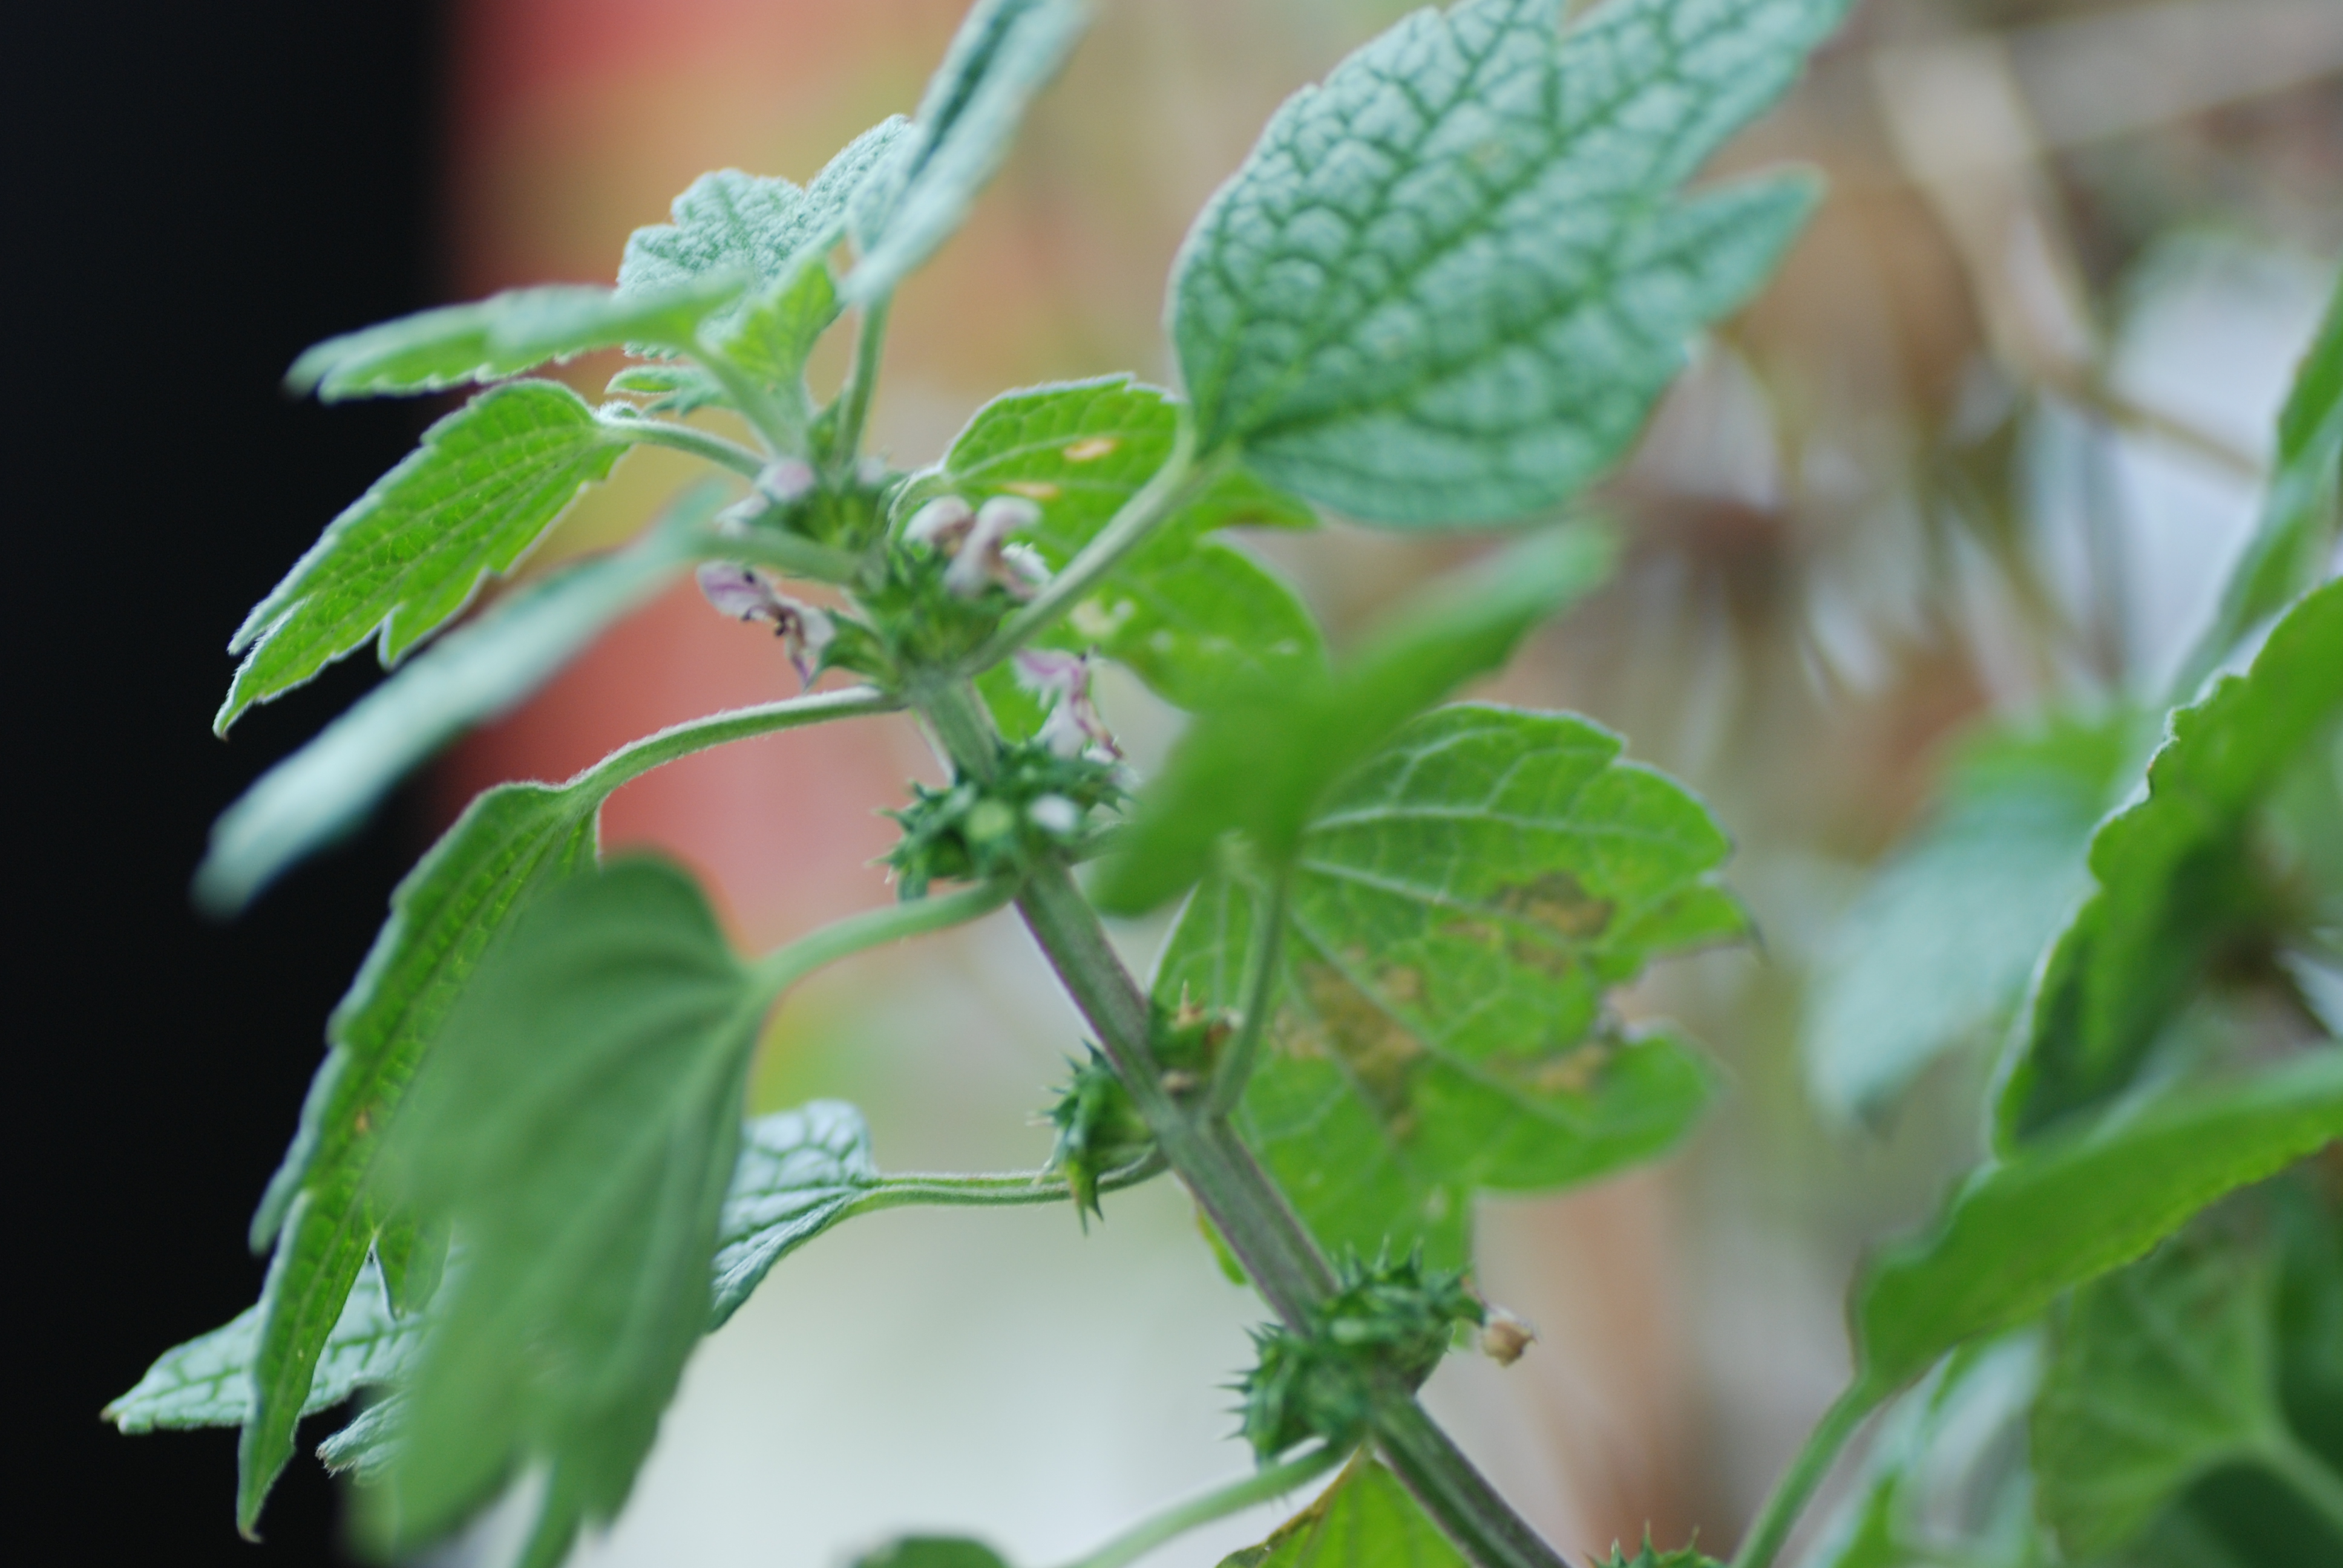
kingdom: Plantae
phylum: Tracheophyta
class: Magnoliopsida
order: Lamiales
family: Lamiaceae
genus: Leonurus
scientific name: Leonurus cardiaca
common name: Motherwort
